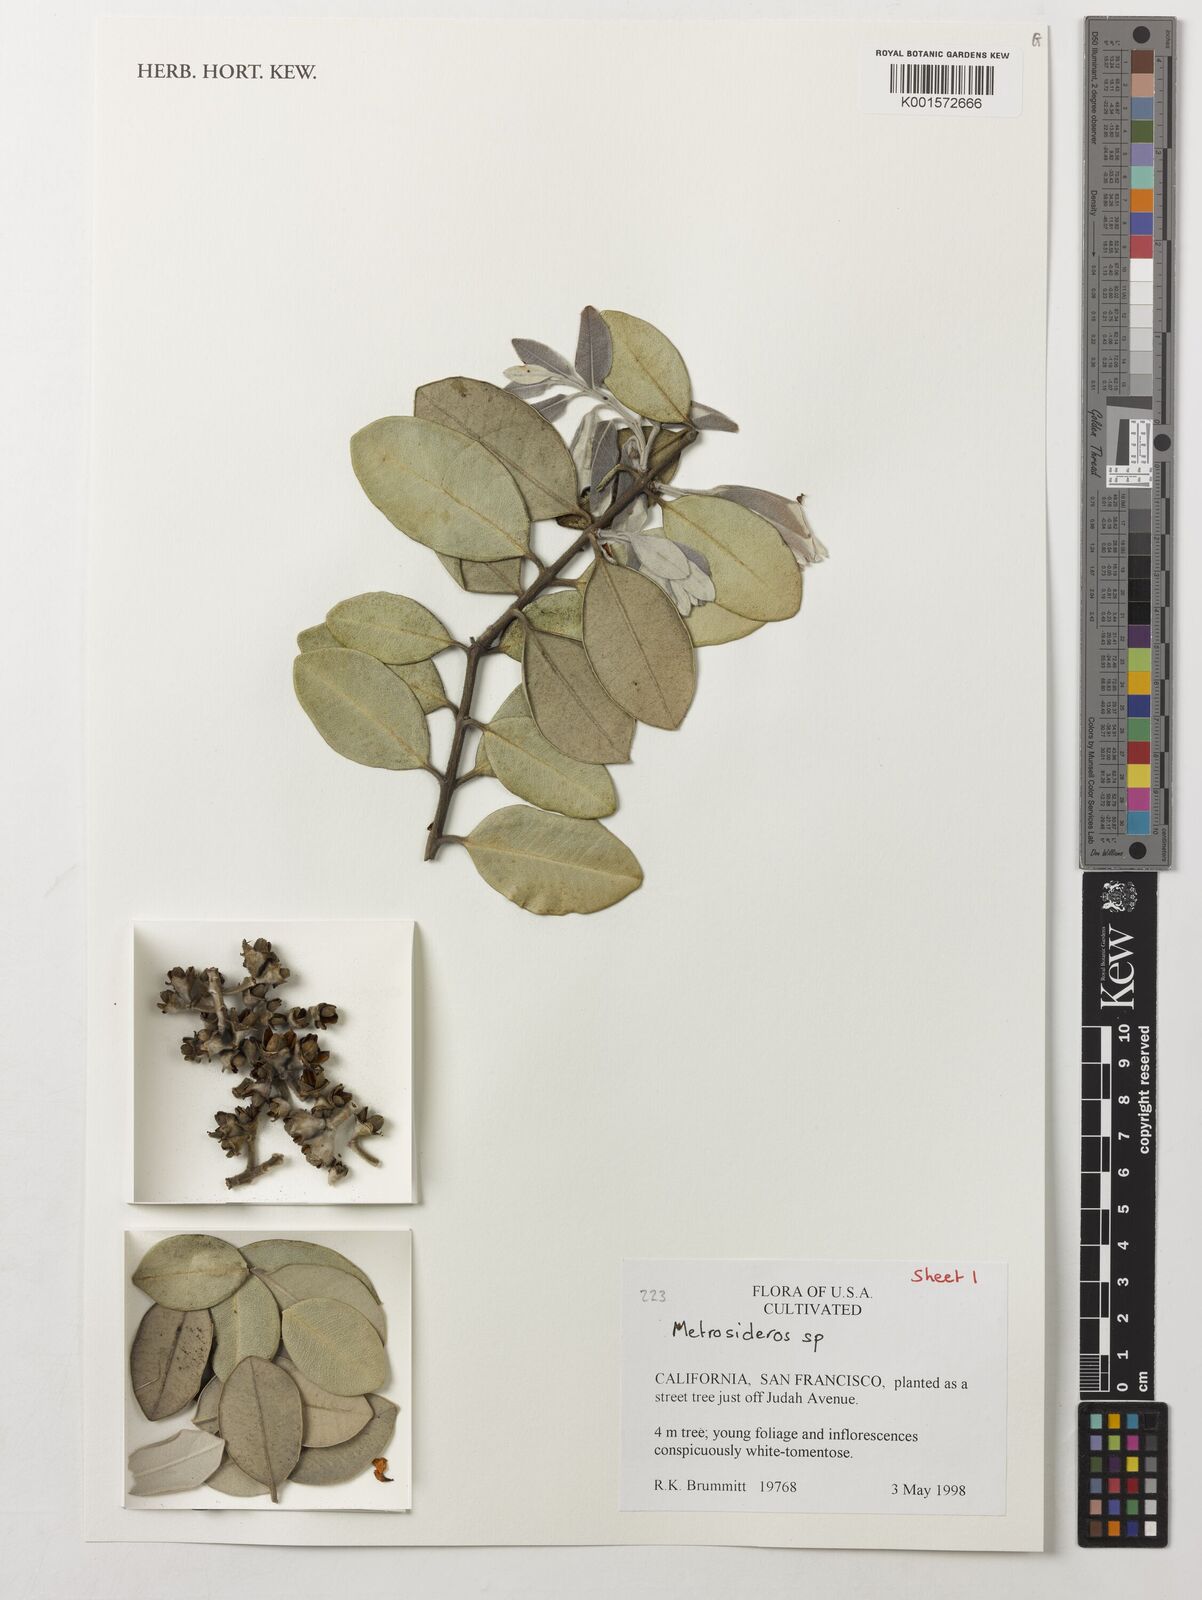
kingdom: Plantae
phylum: Tracheophyta
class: Magnoliopsida
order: Myrtales
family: Myrtaceae
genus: Metrosideros
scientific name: Metrosideros
